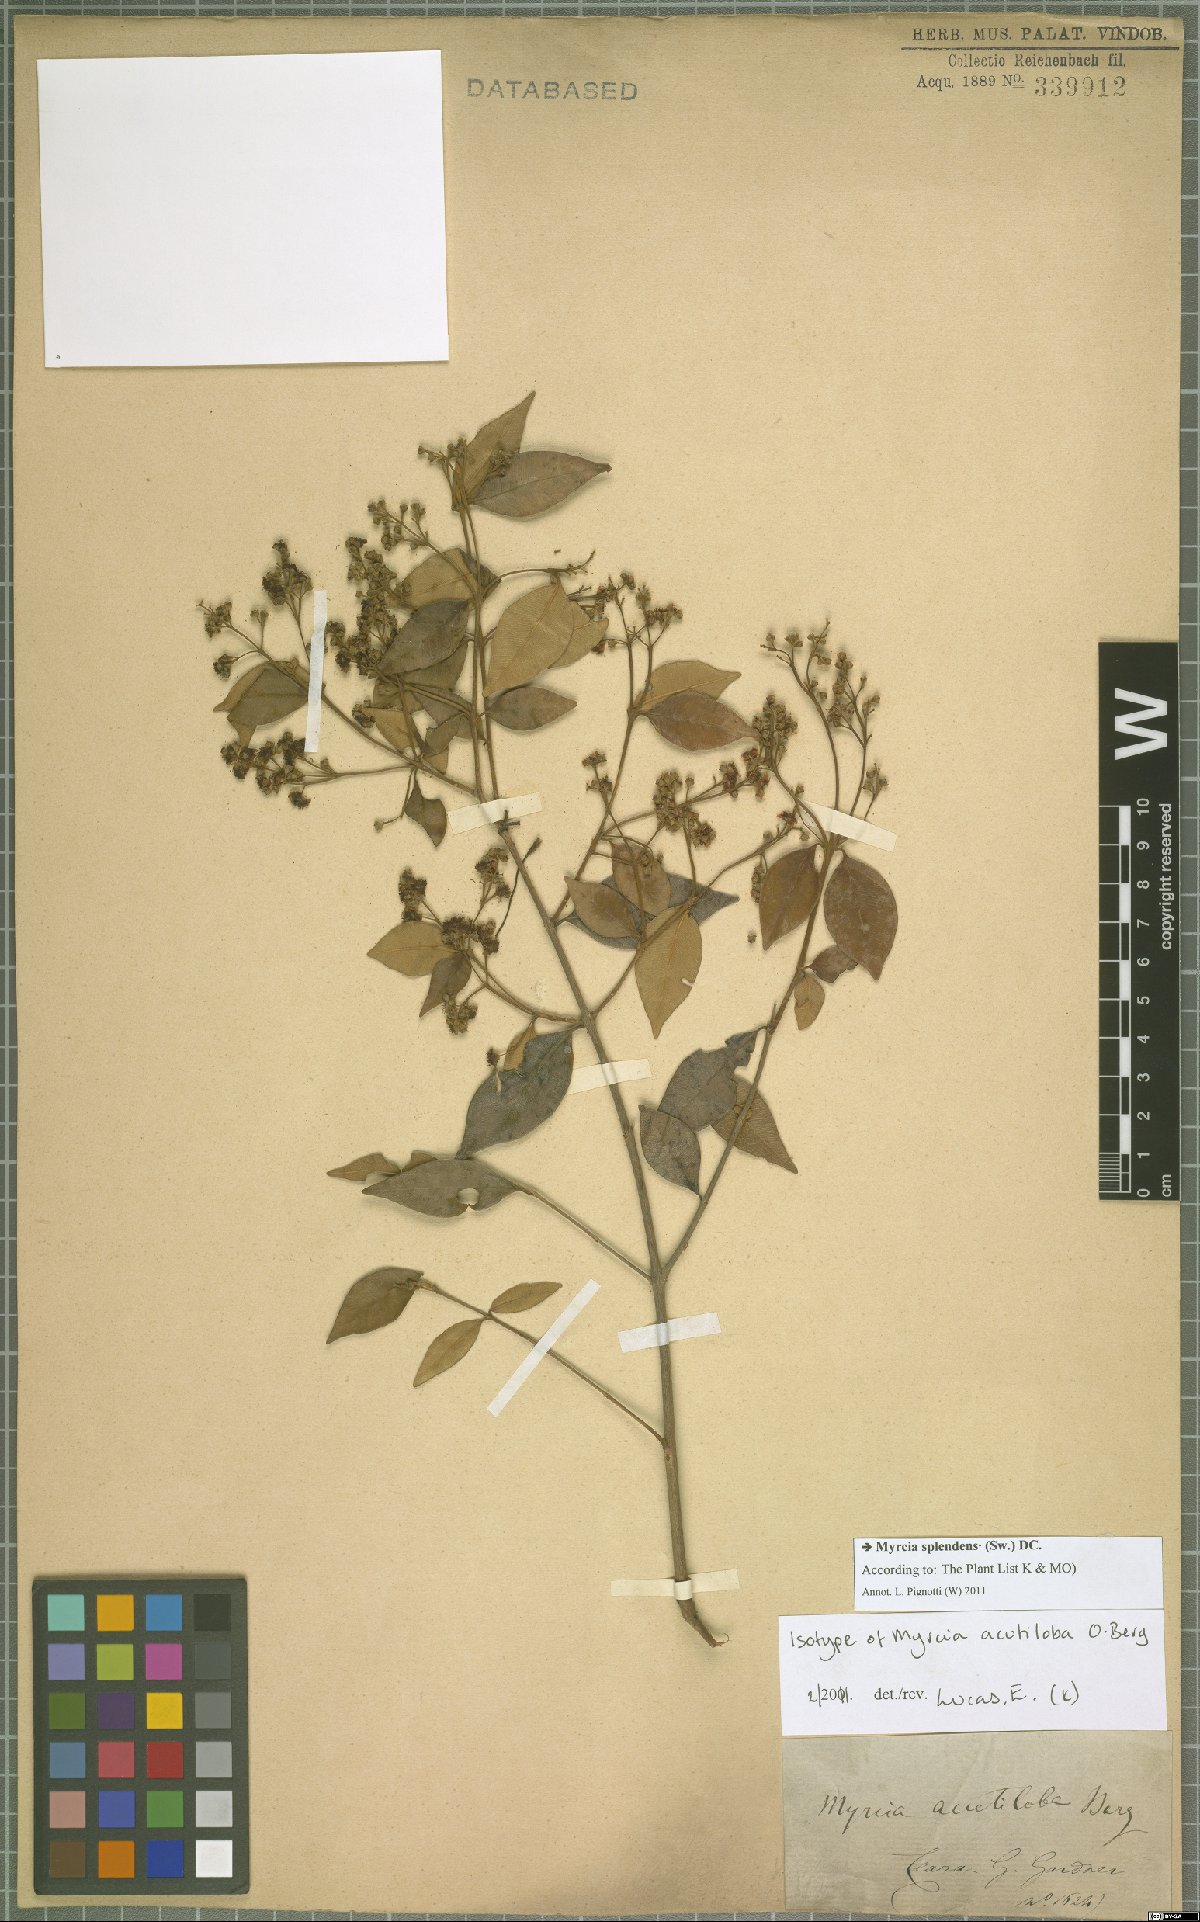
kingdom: Plantae
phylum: Tracheophyta
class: Magnoliopsida
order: Myrtales
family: Myrtaceae
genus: Myrcia
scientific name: Myrcia splendens
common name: Surinam cherry
